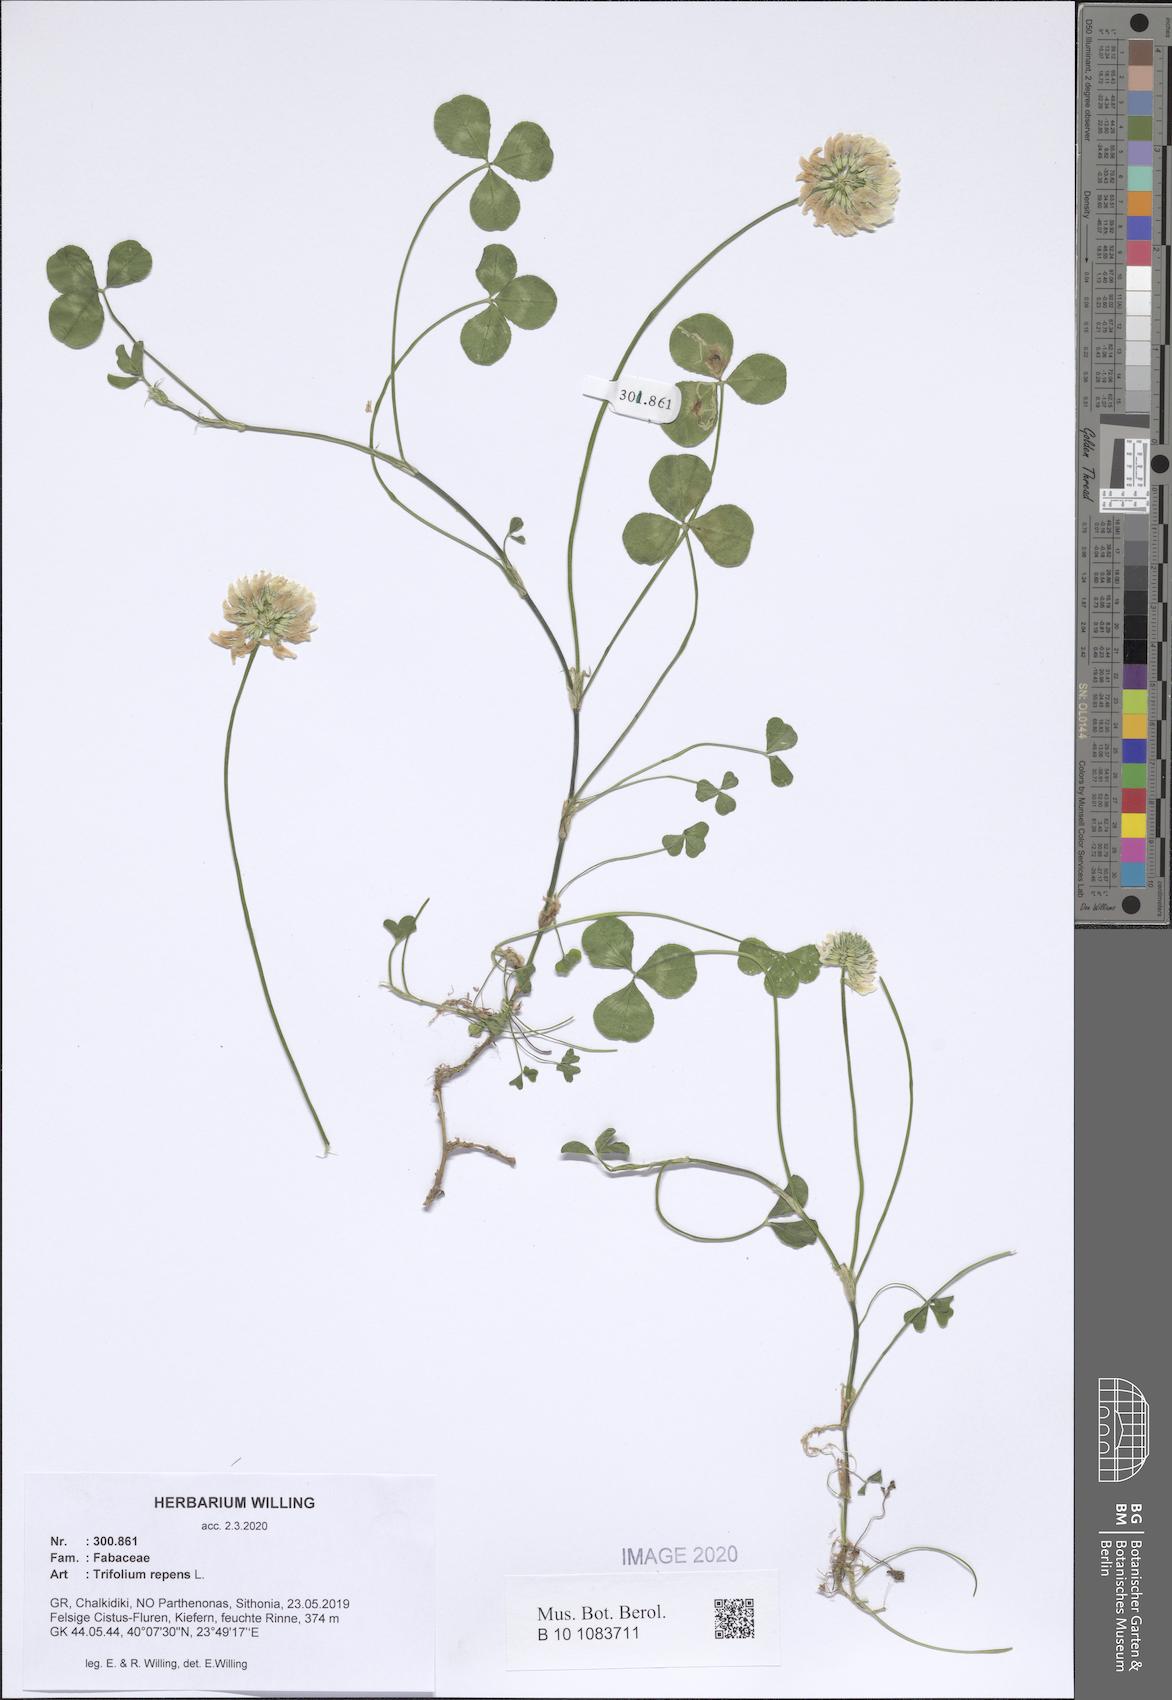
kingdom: Plantae
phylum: Tracheophyta
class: Magnoliopsida
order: Fabales
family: Fabaceae
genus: Trifolium
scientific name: Trifolium repens
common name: White clover
